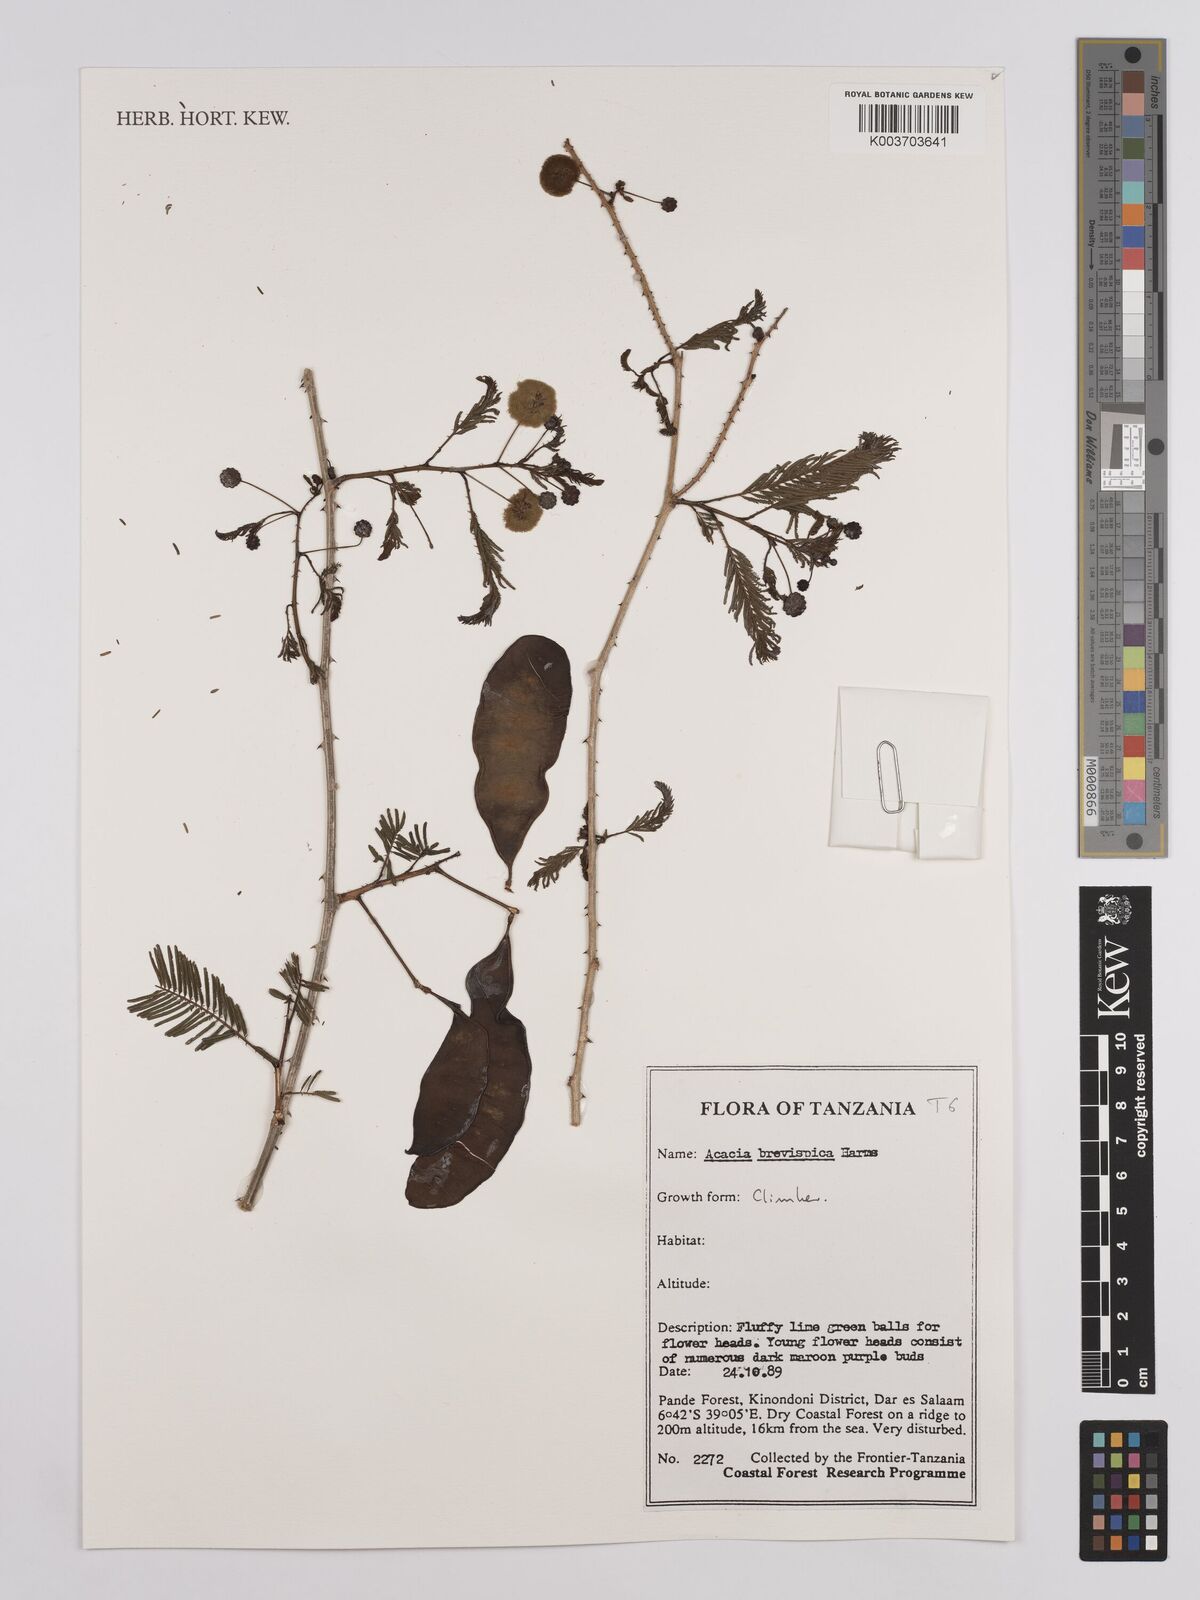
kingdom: Plantae
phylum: Tracheophyta
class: Magnoliopsida
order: Fabales
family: Fabaceae
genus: Senegalia
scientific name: Senegalia brevispica
